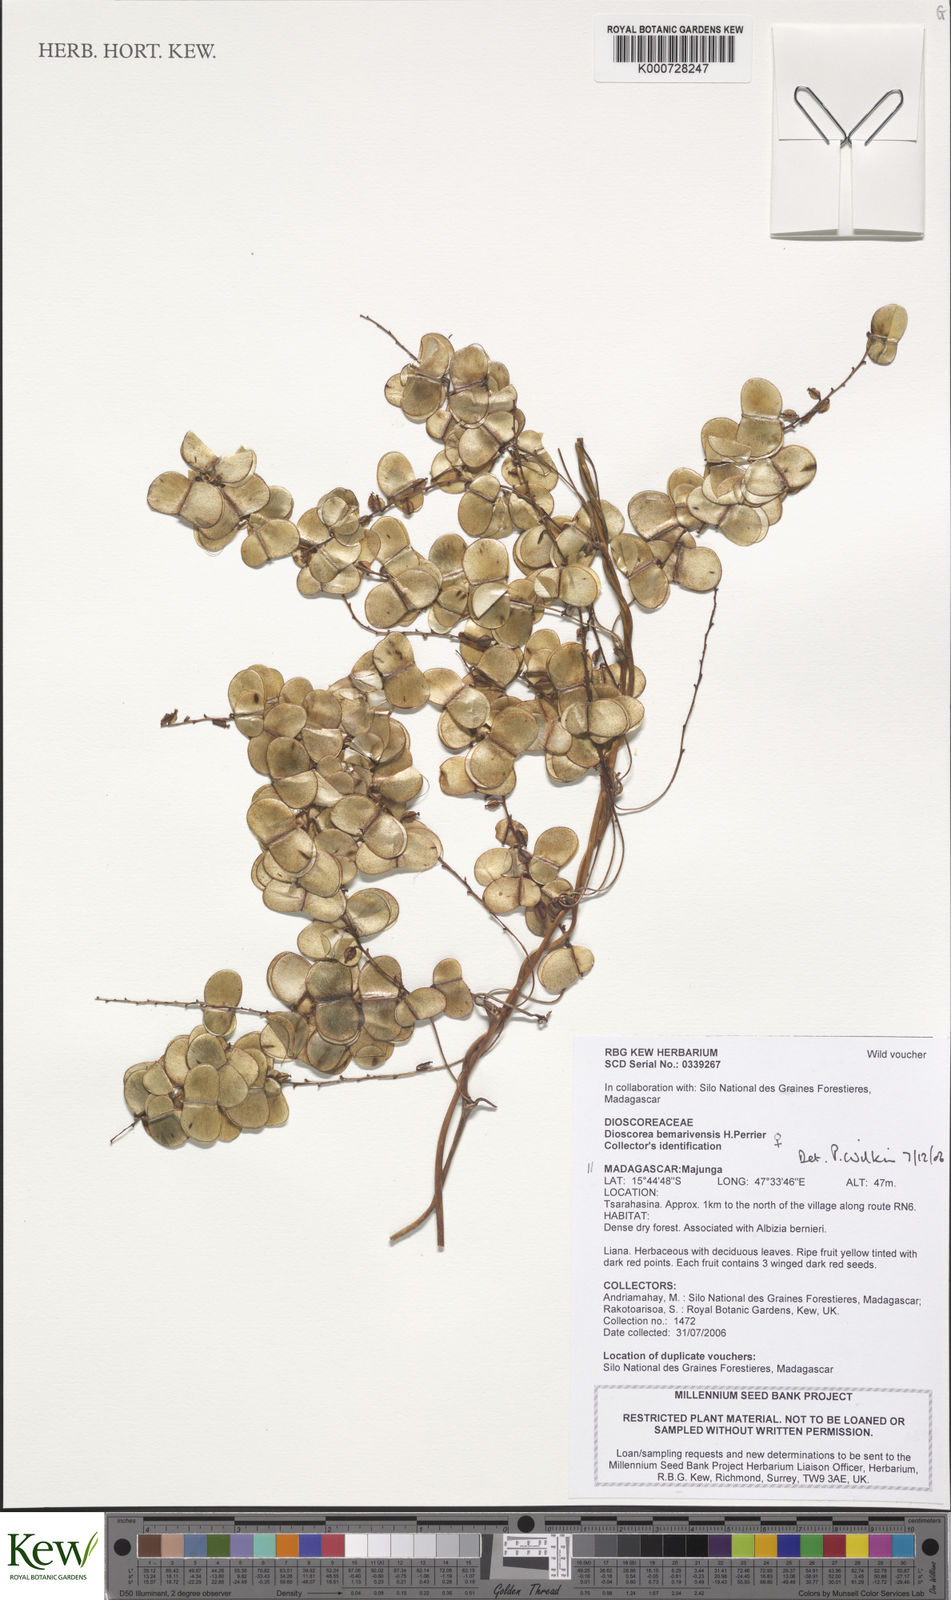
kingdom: Plantae
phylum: Tracheophyta
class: Liliopsida
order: Dioscoreales
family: Dioscoreaceae
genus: Dioscorea
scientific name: Dioscorea bemarivensis
